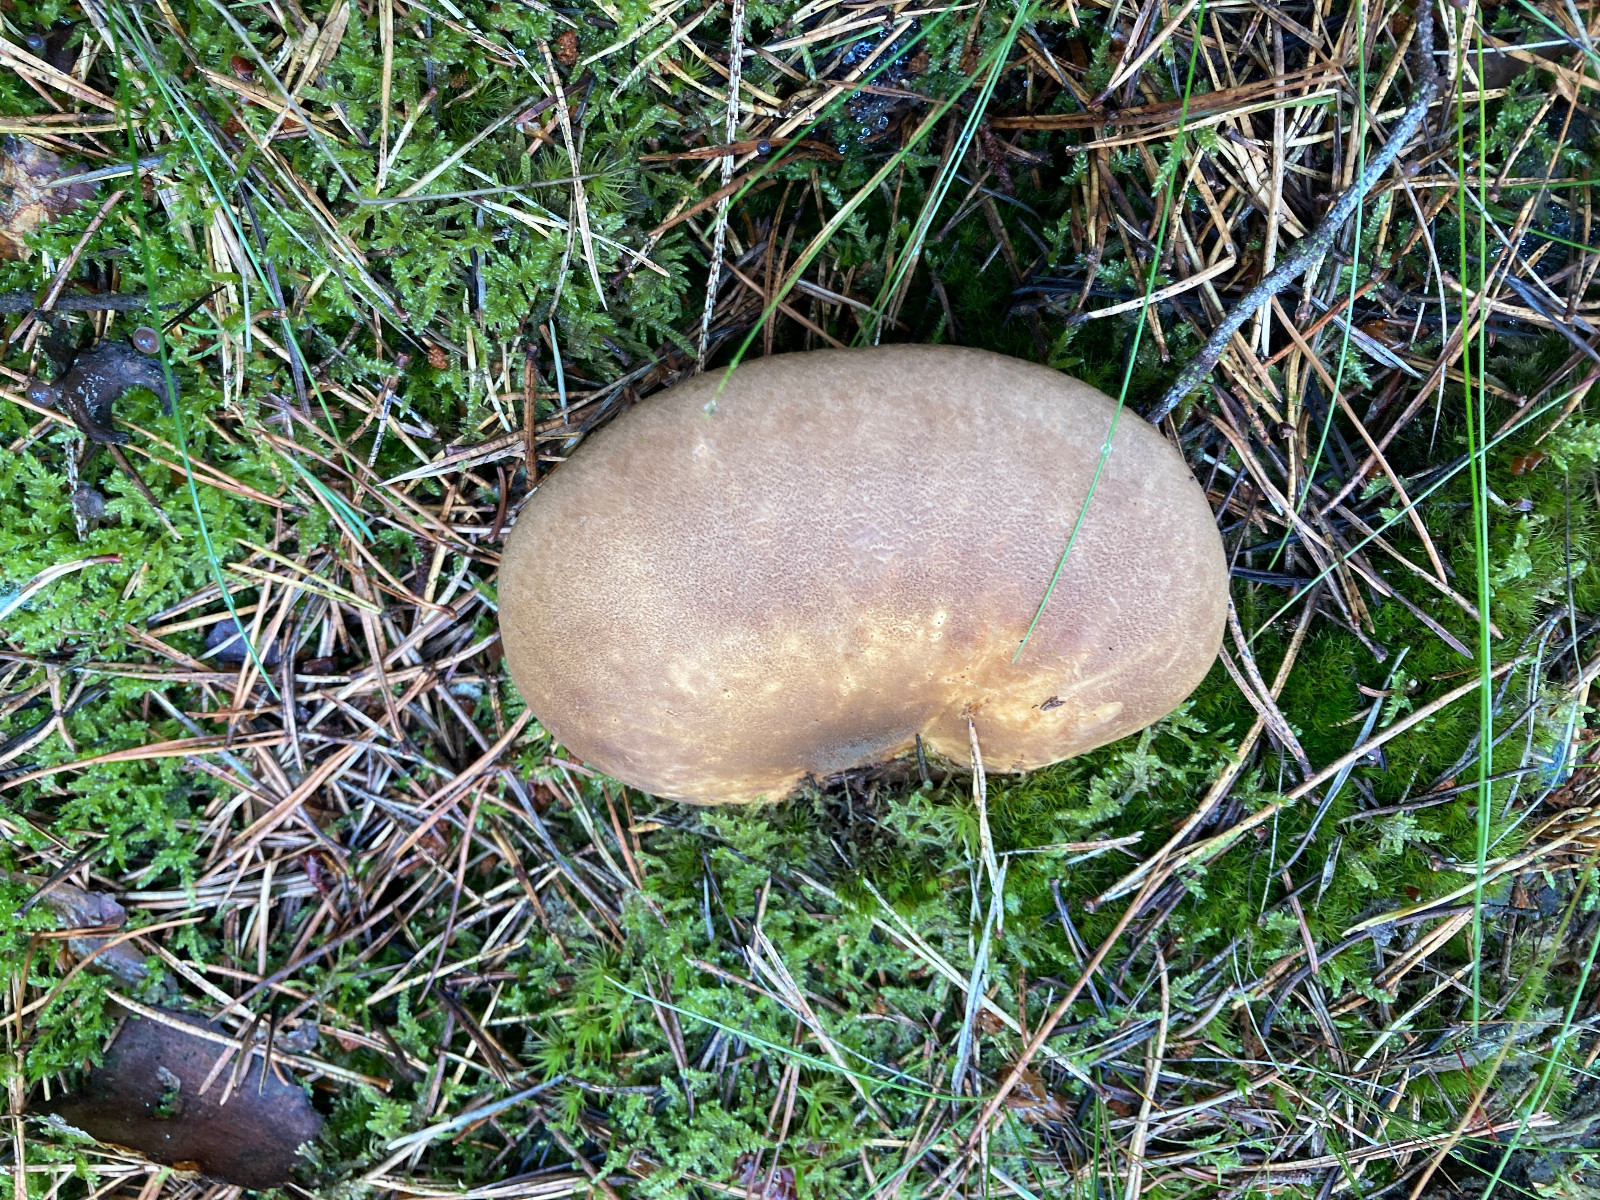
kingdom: Fungi
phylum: Basidiomycota
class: Agaricomycetes
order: Boletales
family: Tapinellaceae
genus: Tapinella
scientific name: Tapinella atrotomentosa
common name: sortfiltet viftesvamp
